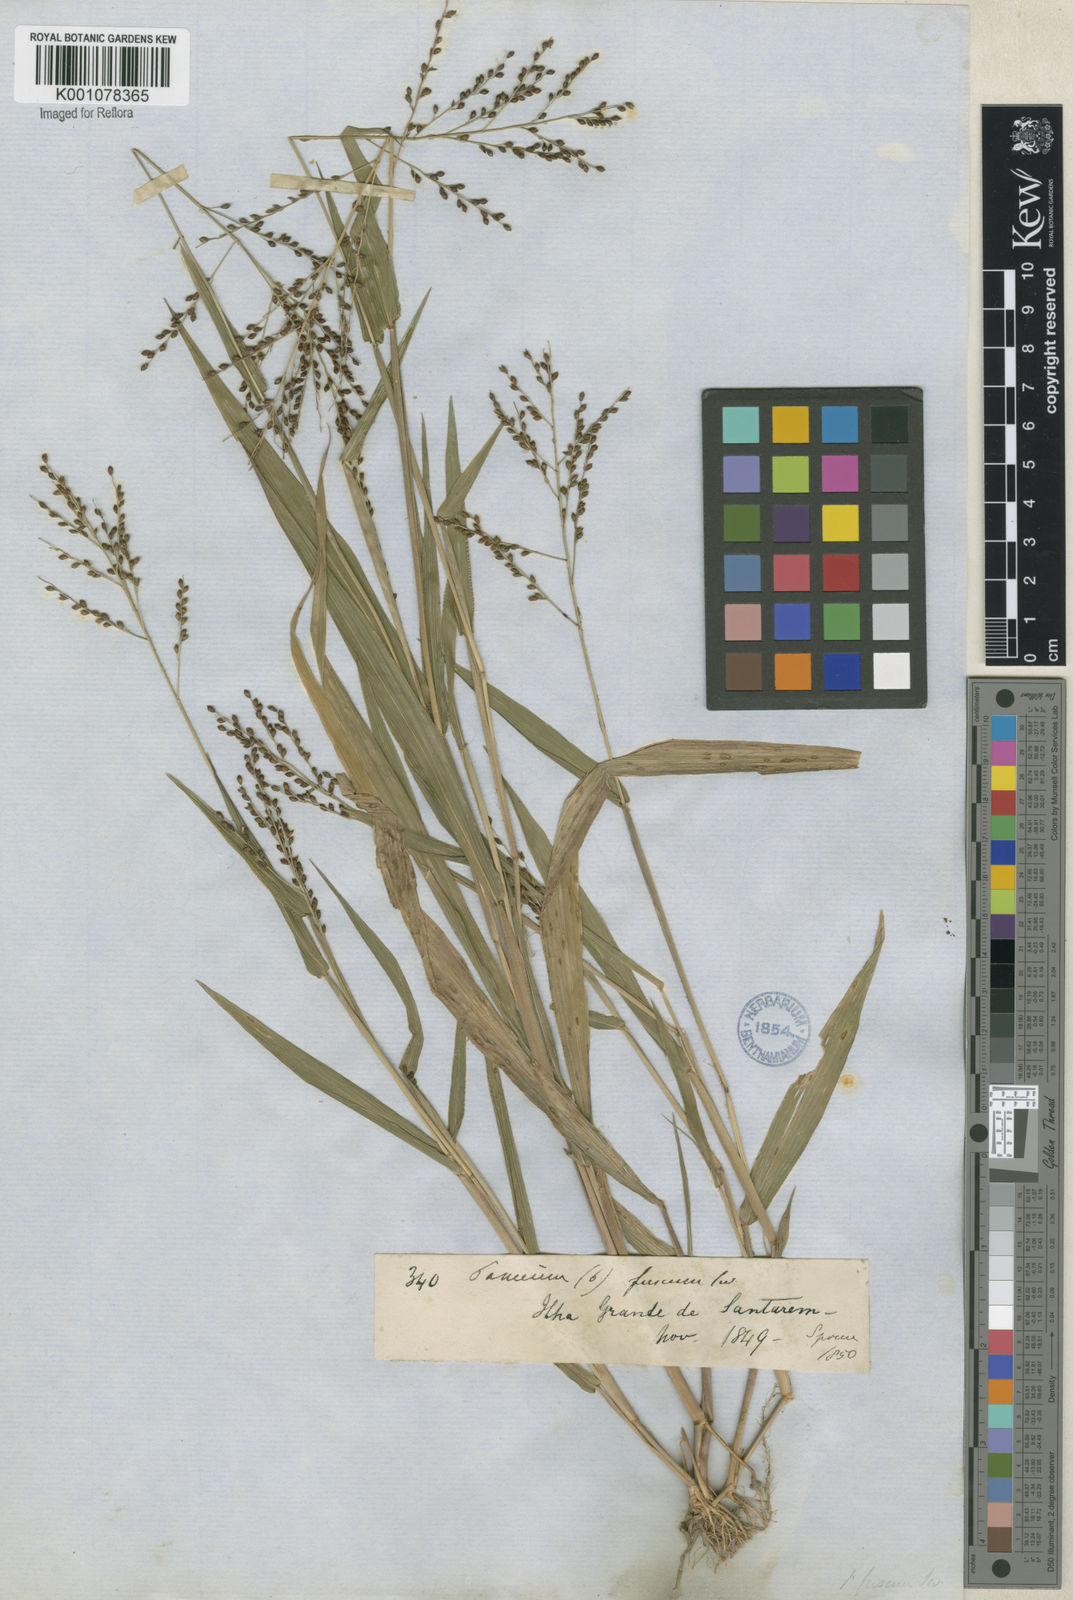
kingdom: Plantae
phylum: Tracheophyta
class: Liliopsida
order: Poales
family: Poaceae
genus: Urochloa
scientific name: Urochloa fusca
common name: Browntop signal grass
